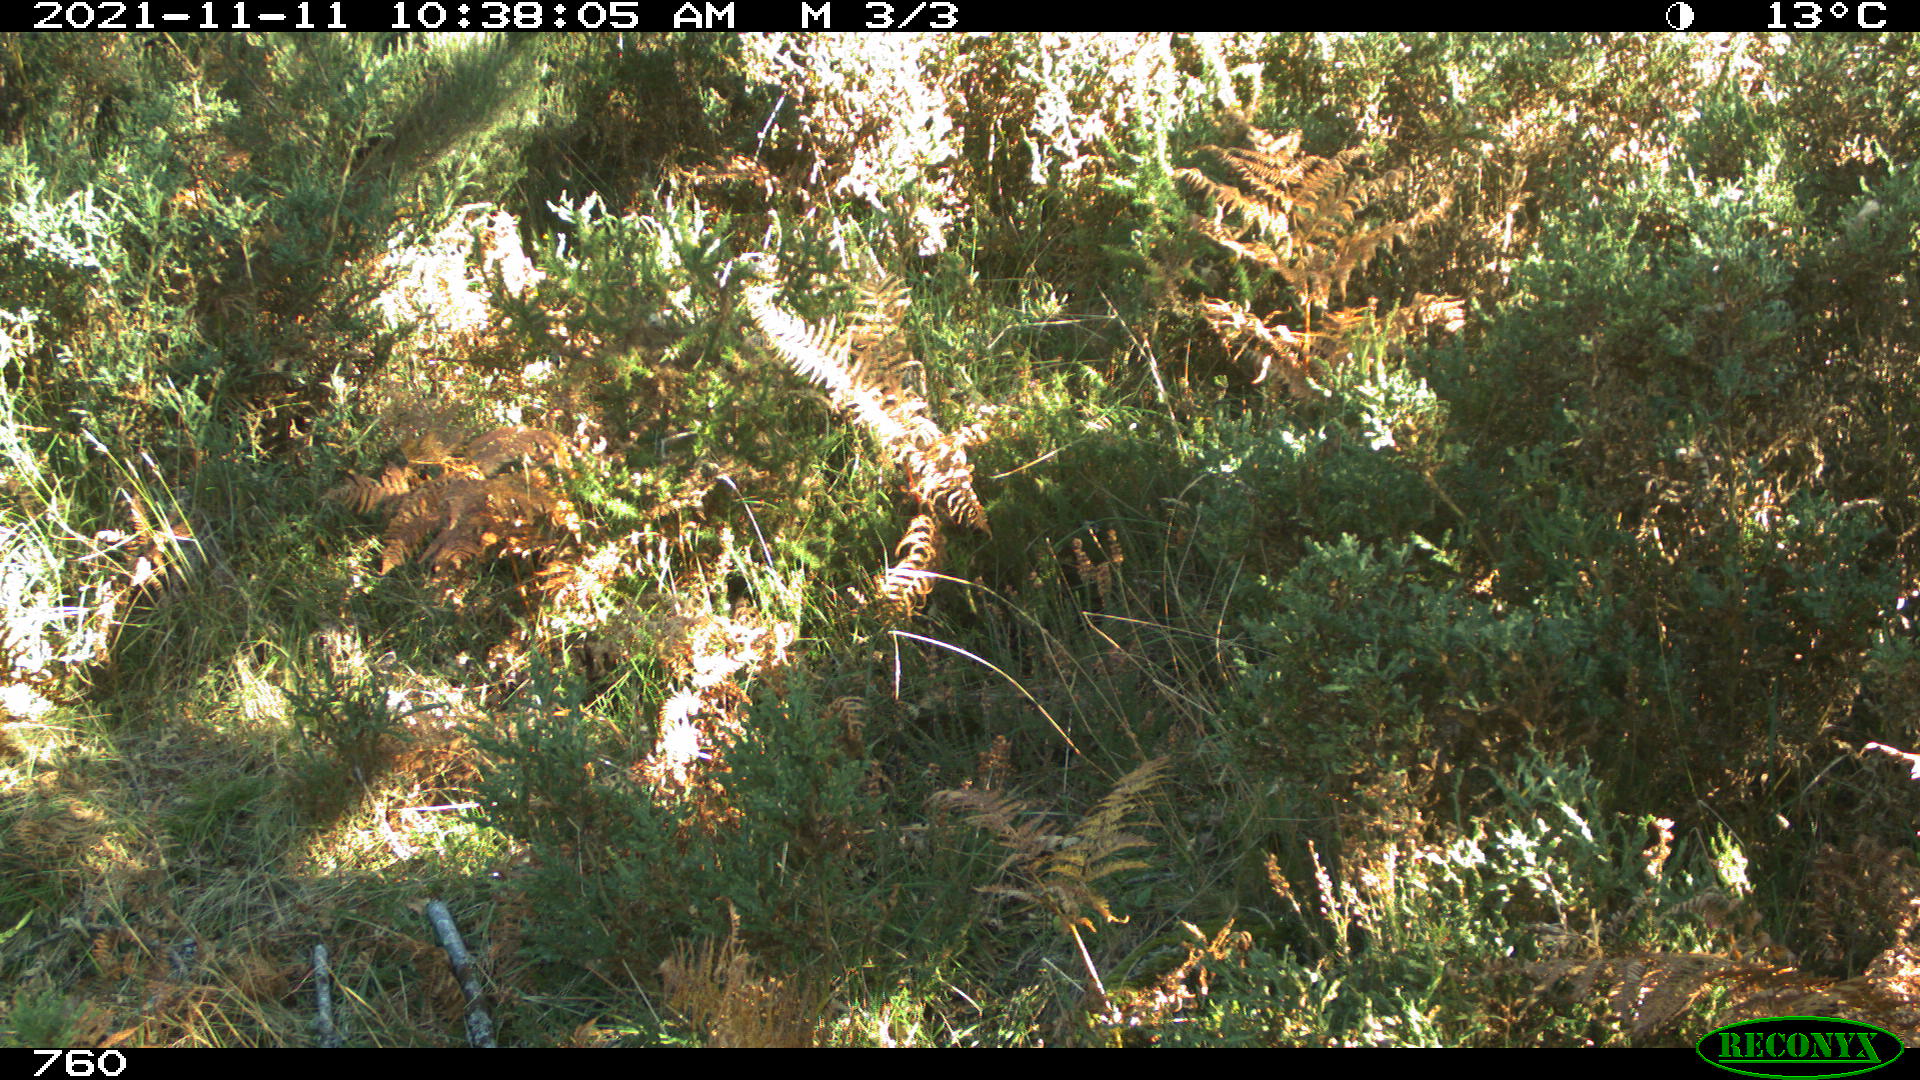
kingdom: Animalia
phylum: Chordata
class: Mammalia
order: Artiodactyla
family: Cervidae
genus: Capreolus
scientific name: Capreolus capreolus
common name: Western roe deer
